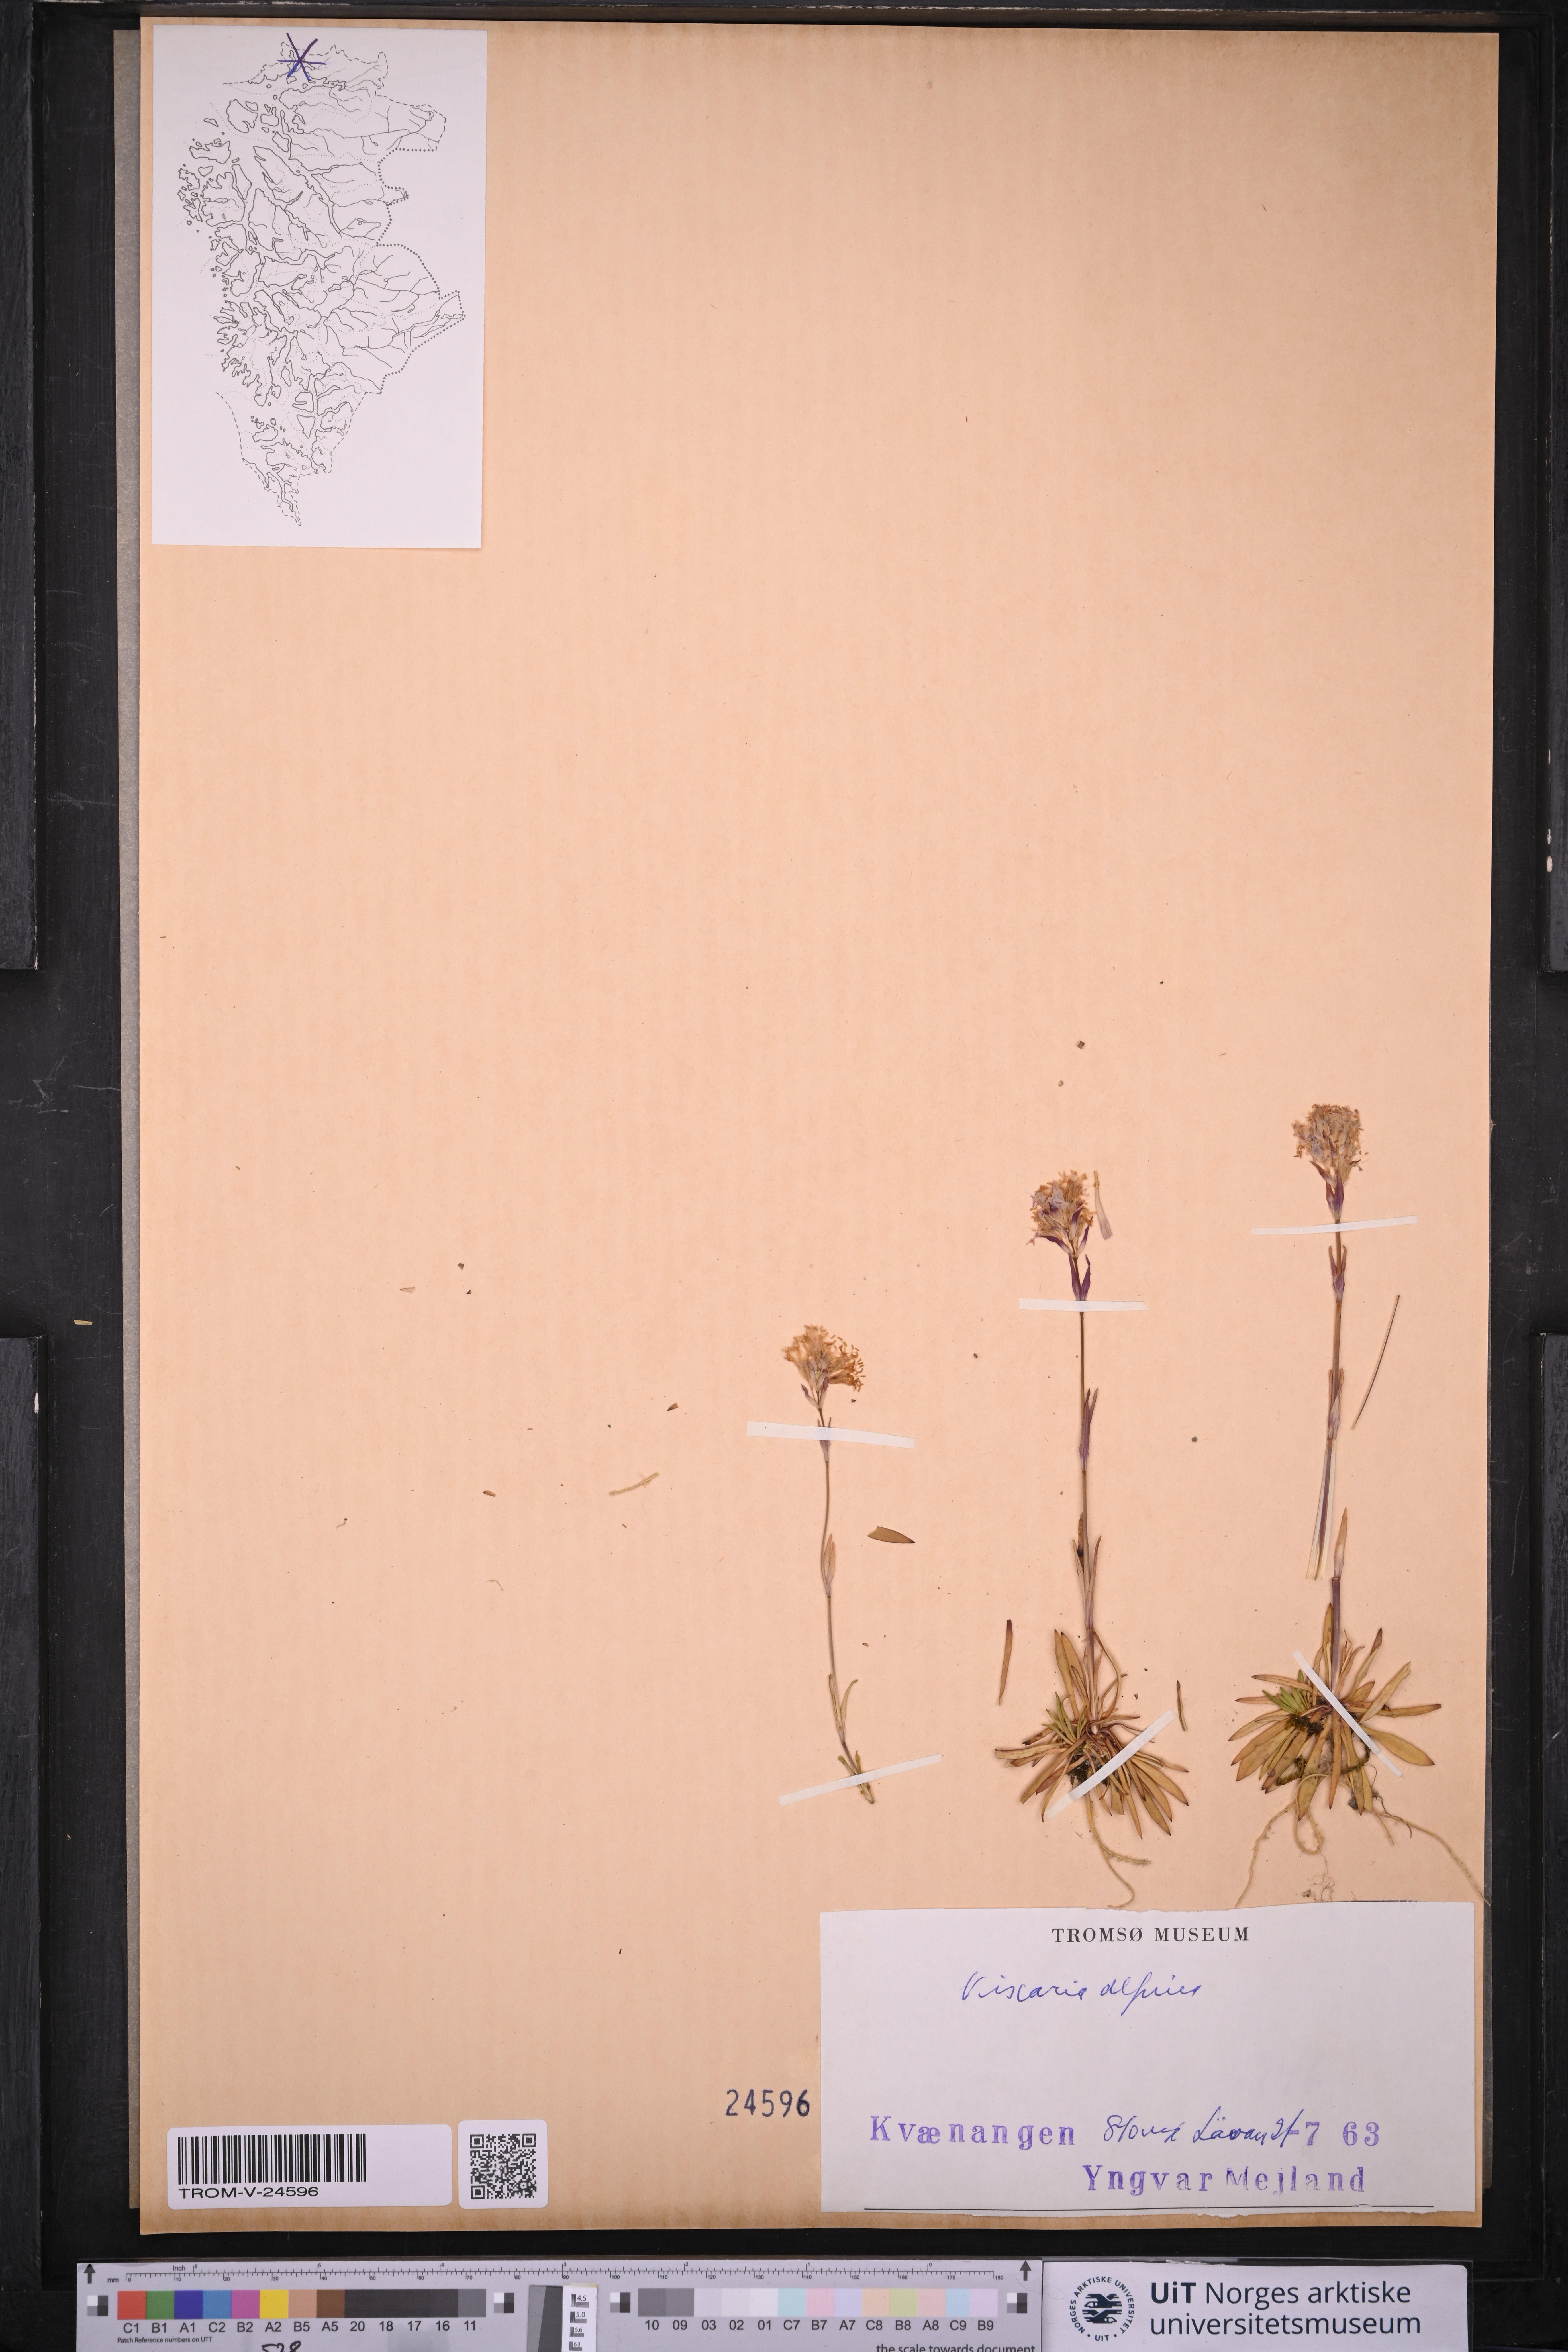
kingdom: Plantae
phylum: Tracheophyta
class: Magnoliopsida
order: Caryophyllales
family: Caryophyllaceae
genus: Viscaria
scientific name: Viscaria alpina
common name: Alpine campion
